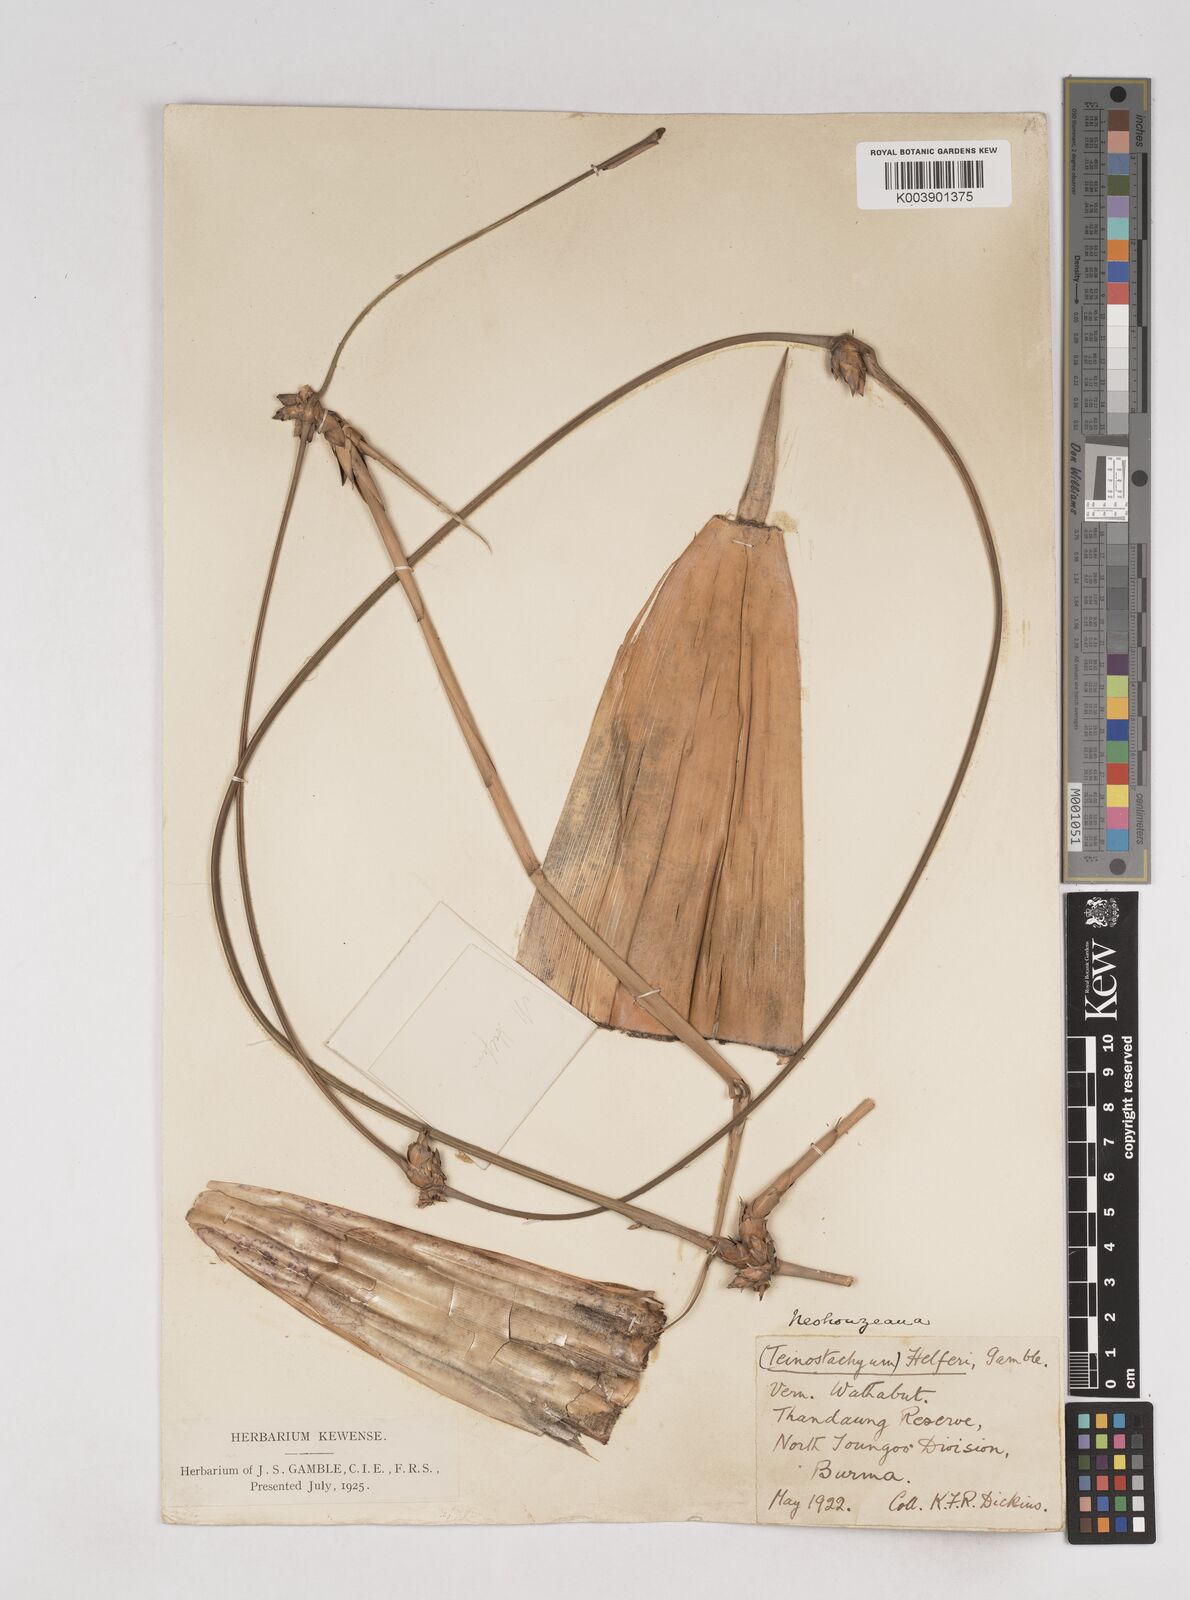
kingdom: Plantae
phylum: Tracheophyta
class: Liliopsida
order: Poales
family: Poaceae
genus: Schizostachyum
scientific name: Schizostachyum helferi
